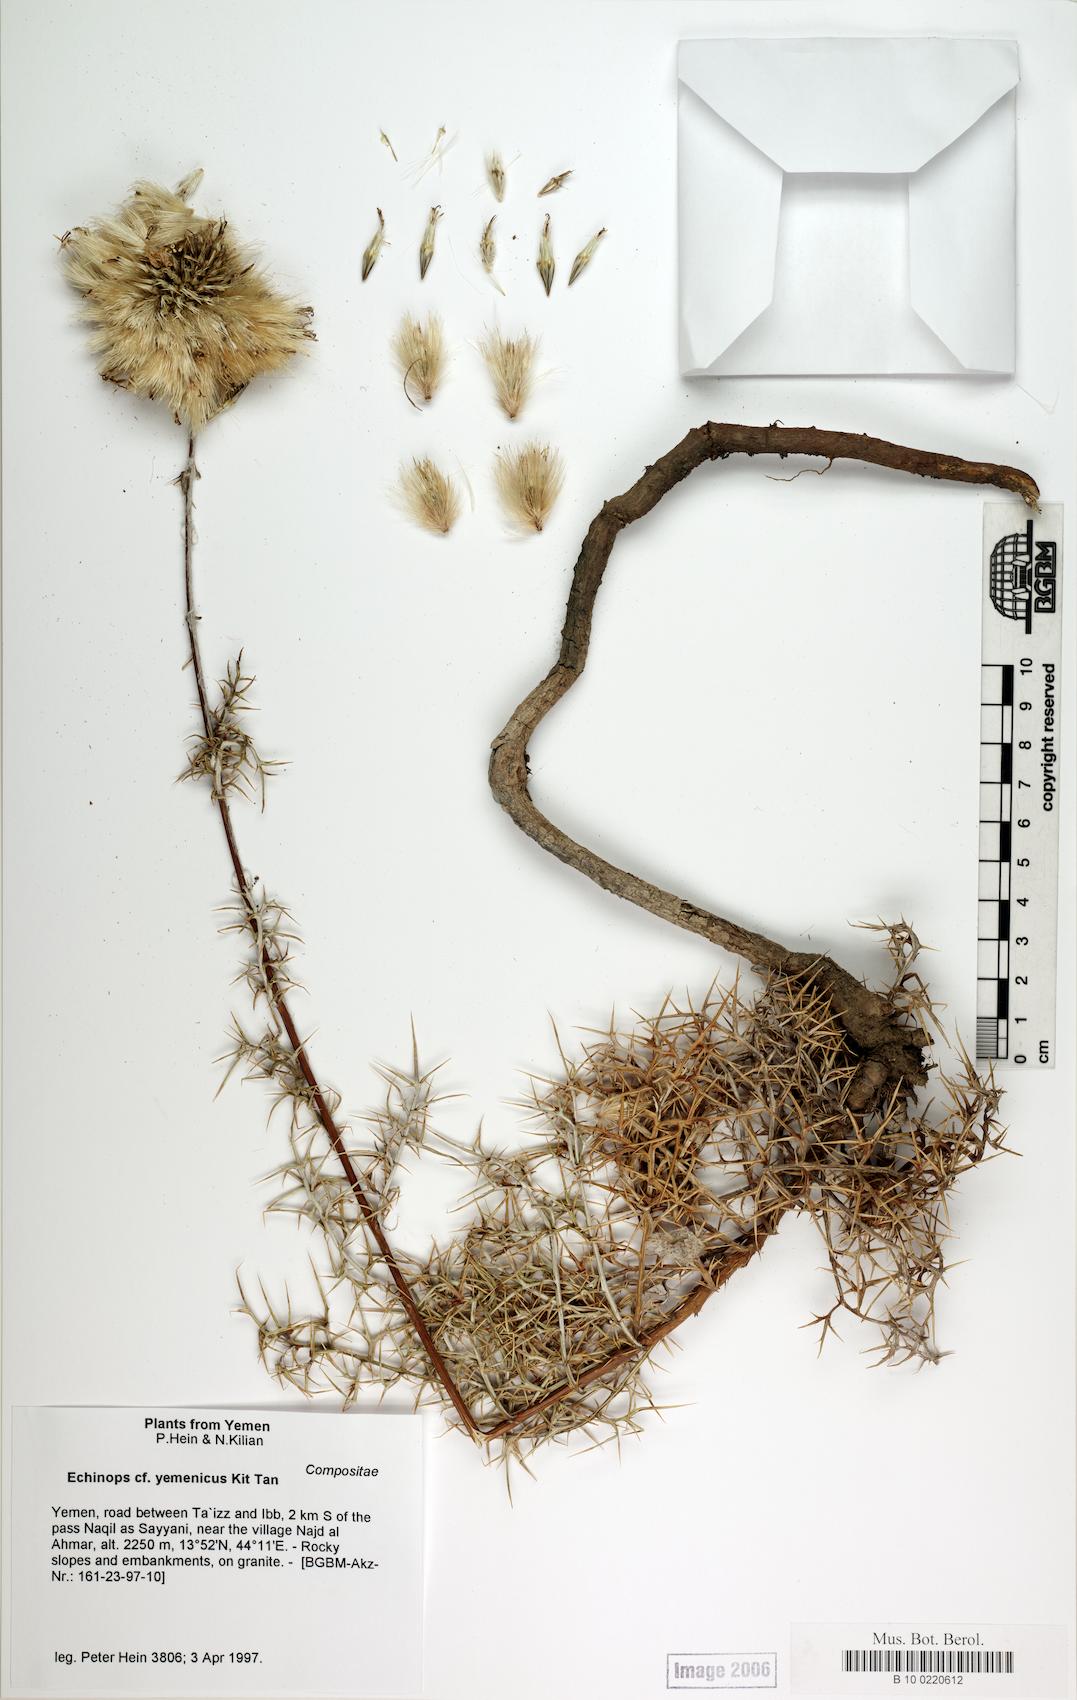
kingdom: Plantae
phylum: Tracheophyta
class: Magnoliopsida
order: Caryophyllales
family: Caryophyllaceae
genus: Stellaria
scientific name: Stellaria apetala
